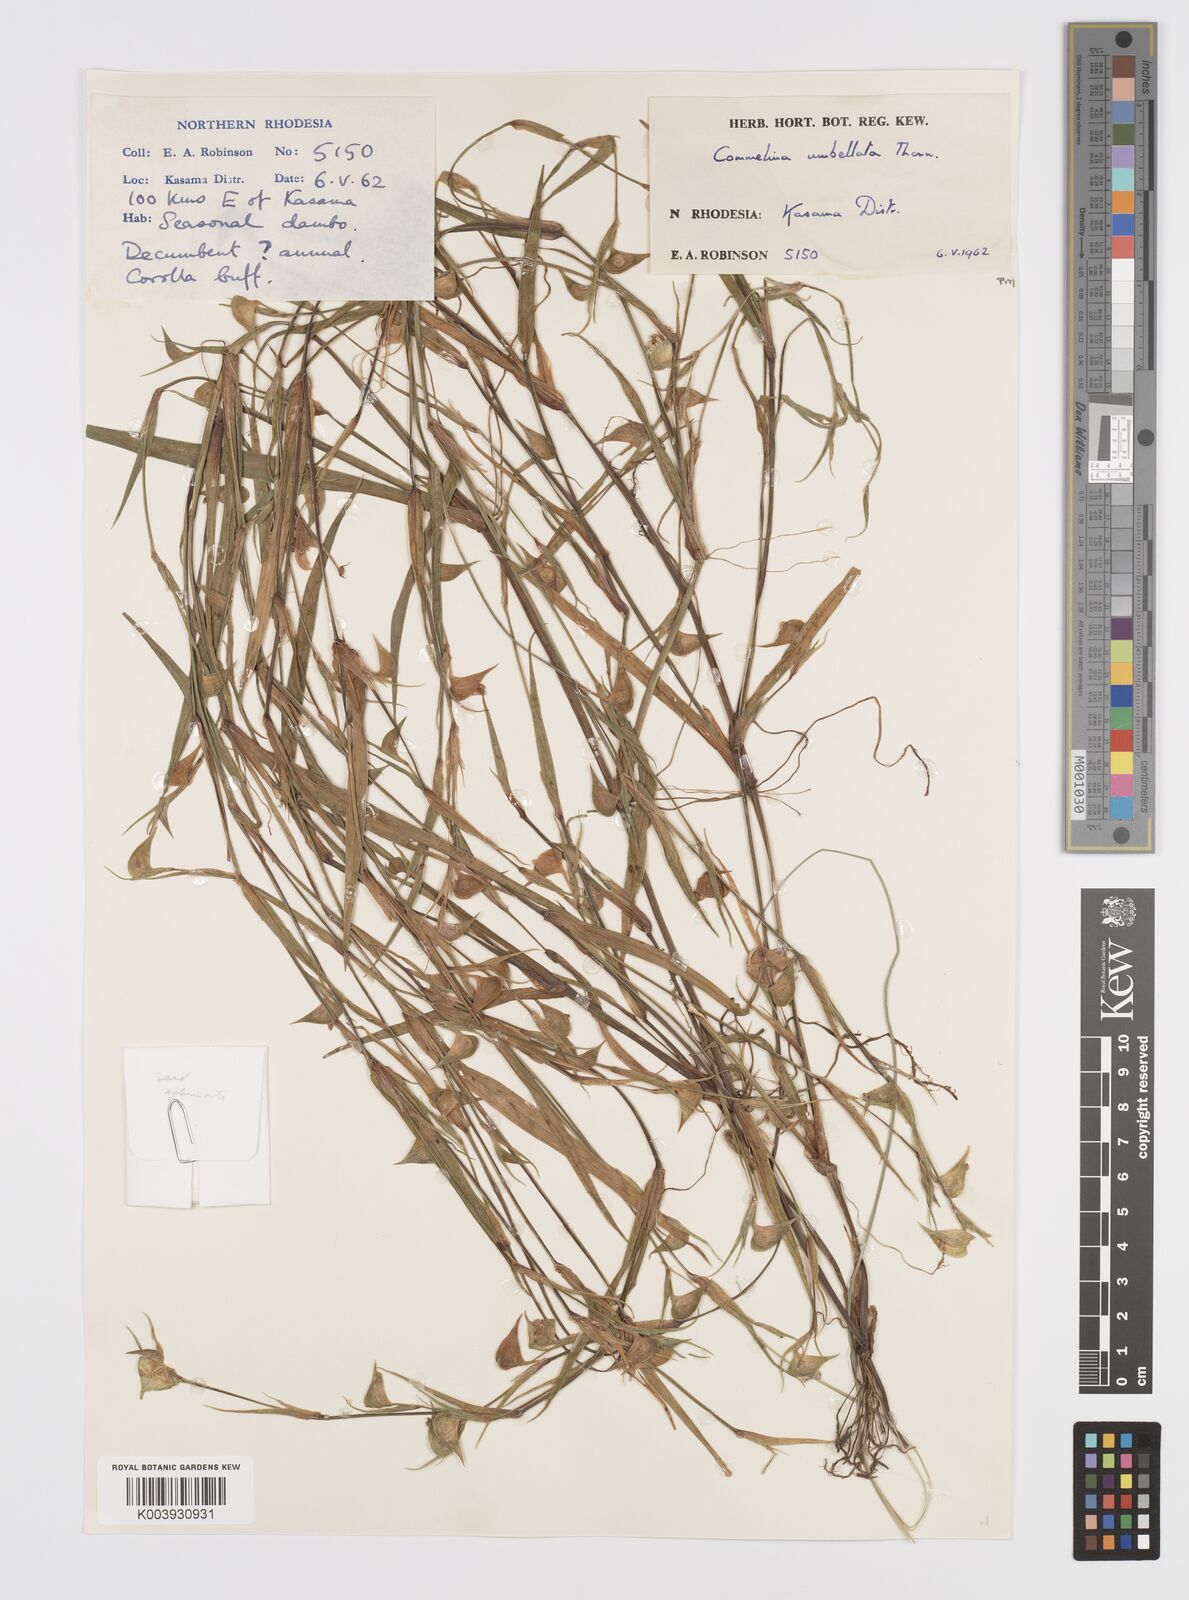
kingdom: Plantae
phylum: Tracheophyta
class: Liliopsida
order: Commelinales
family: Commelinaceae
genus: Commelina
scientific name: Commelina nigritana
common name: African dayflower
